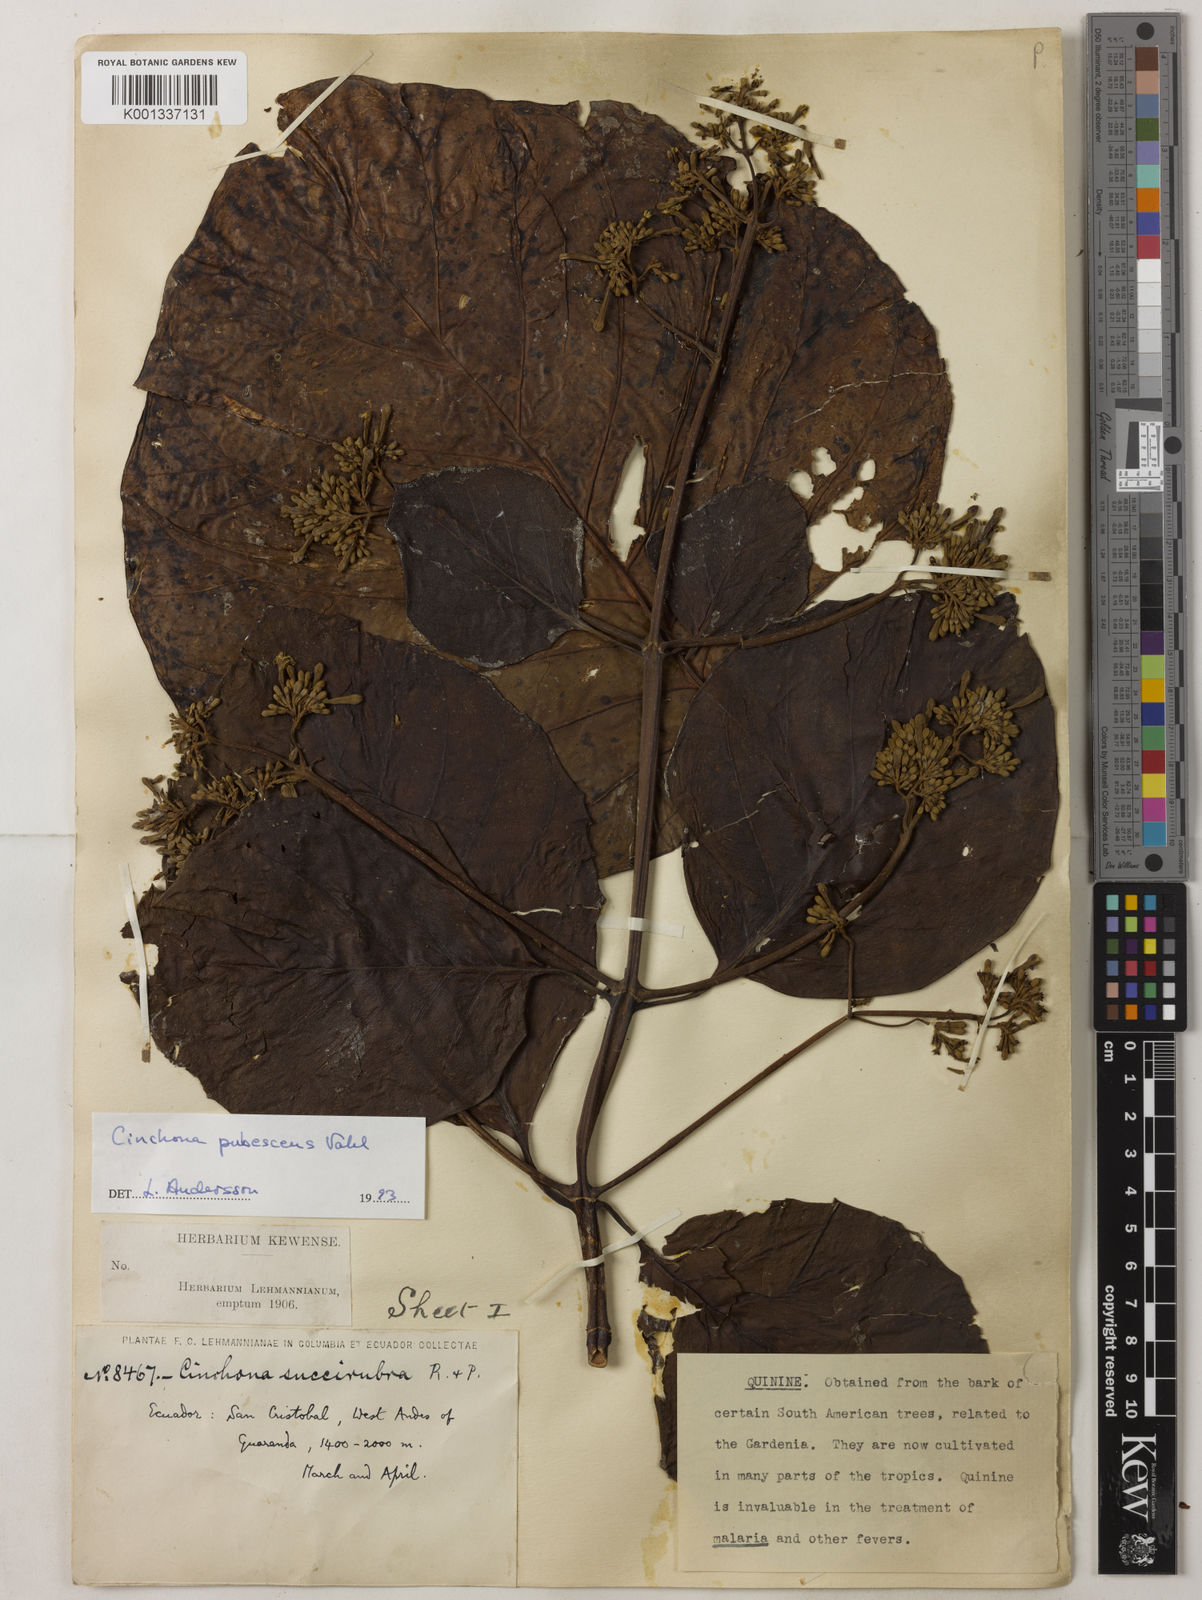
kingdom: Plantae
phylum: Tracheophyta
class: Magnoliopsida
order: Gentianales
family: Rubiaceae
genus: Cinchona
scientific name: Cinchona pubescens
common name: Quinine
